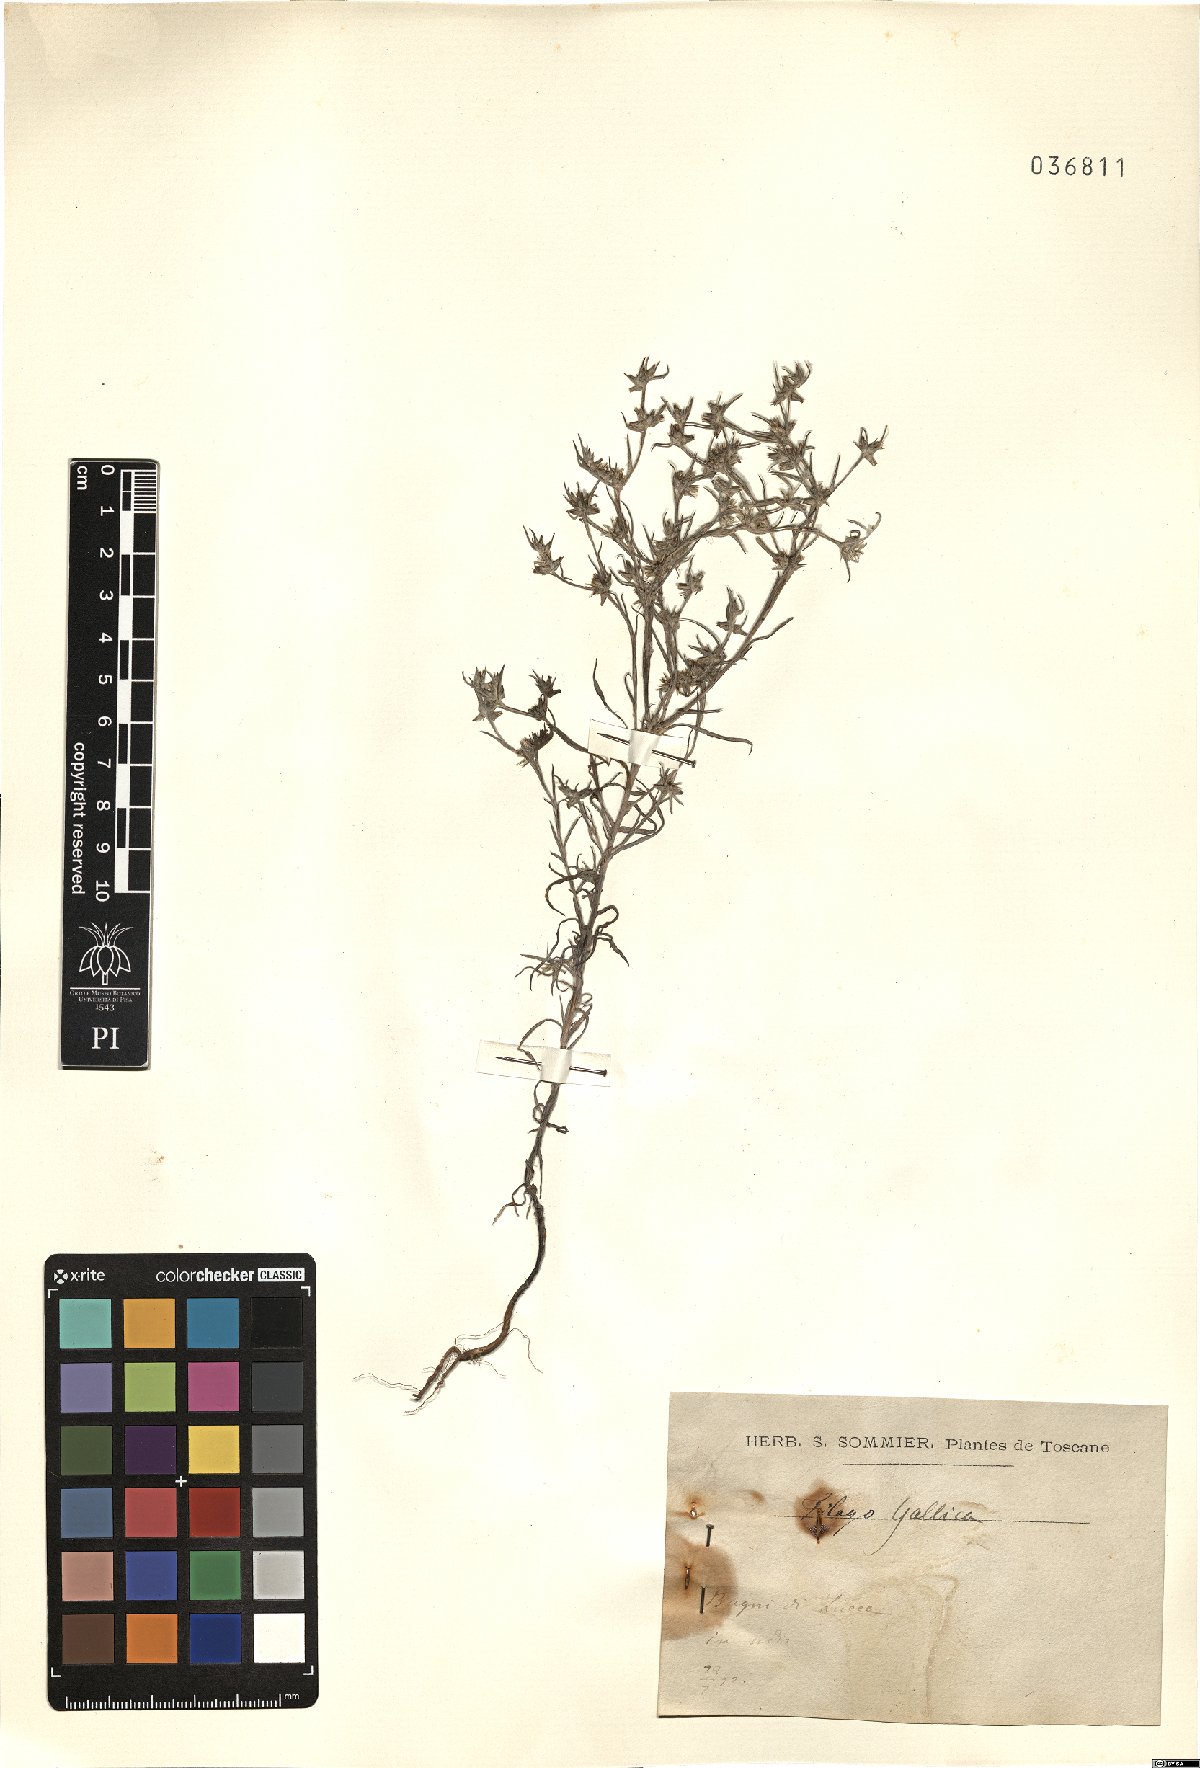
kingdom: Plantae
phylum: Tracheophyta
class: Magnoliopsida
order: Asterales
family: Asteraceae
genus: Logfia
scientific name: Logfia gallica
